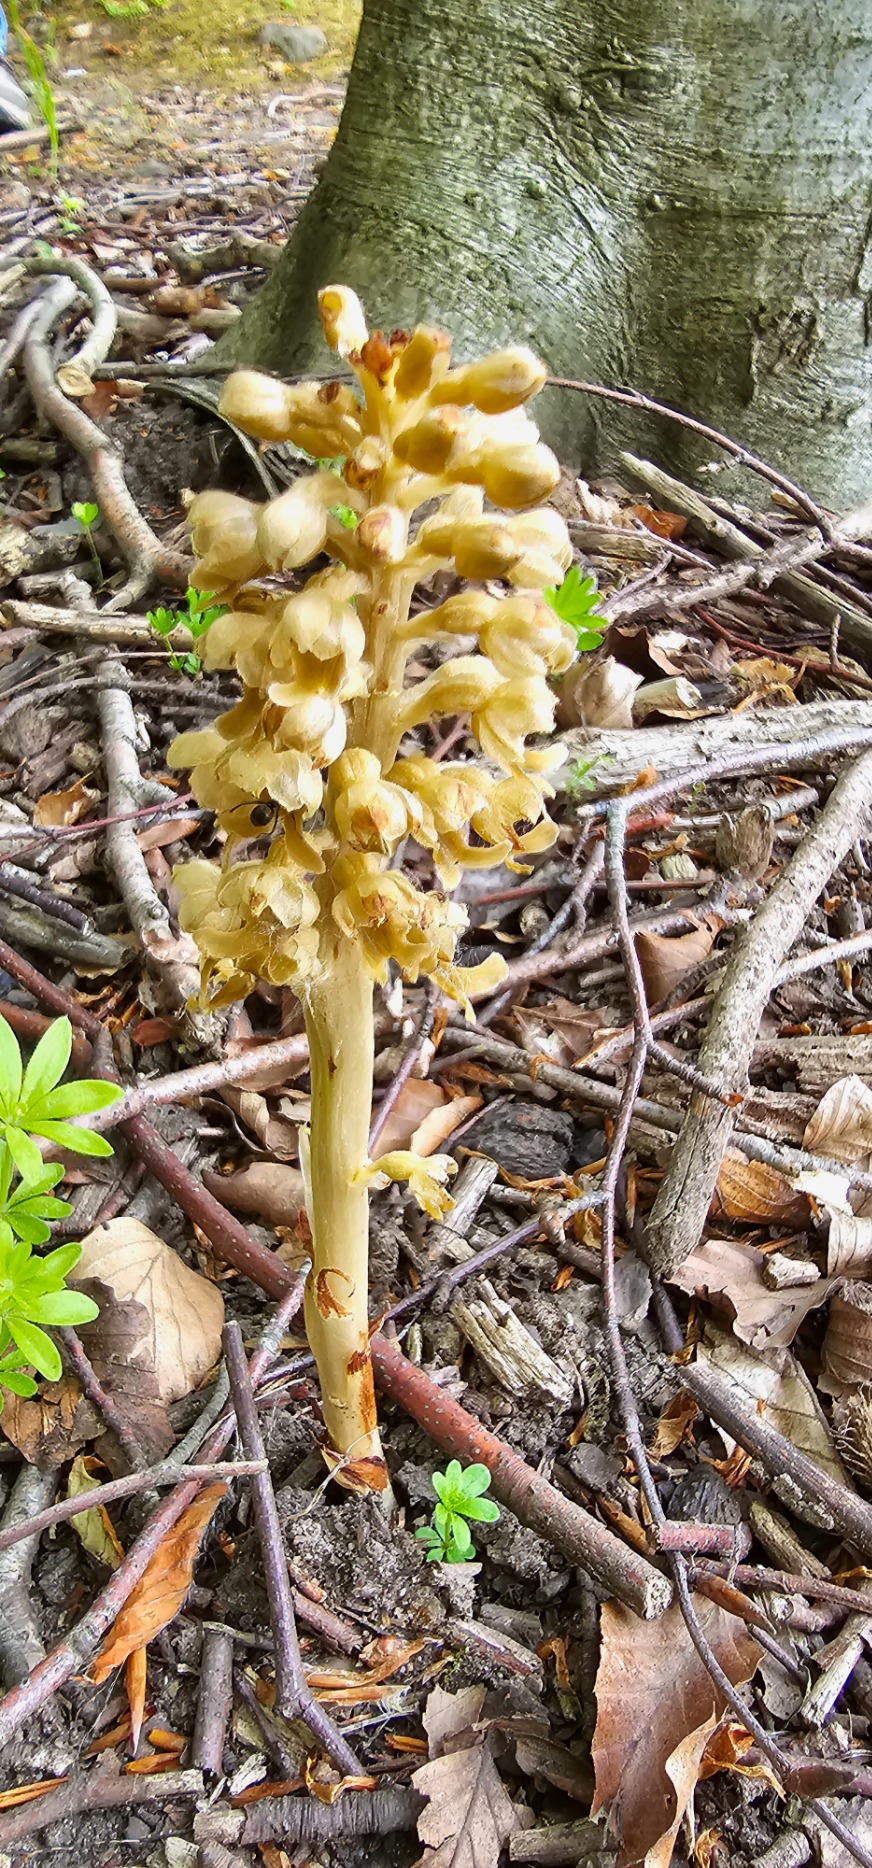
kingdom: Plantae
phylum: Tracheophyta
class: Liliopsida
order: Asparagales
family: Orchidaceae
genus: Neottia
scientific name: Neottia nidus-avis
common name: Rederod
